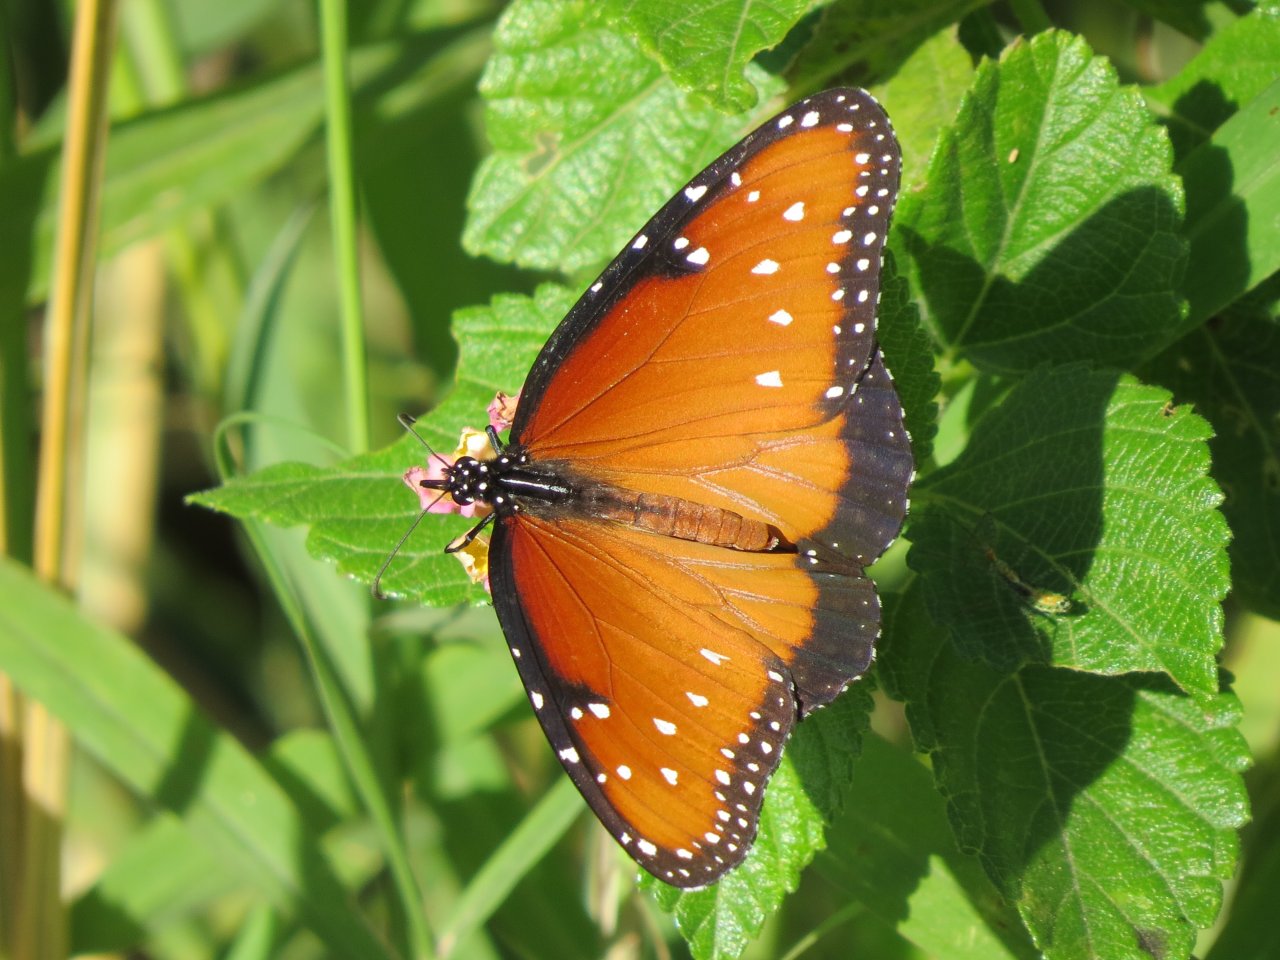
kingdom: Animalia
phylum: Arthropoda
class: Insecta
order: Lepidoptera
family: Nymphalidae
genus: Danaus
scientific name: Danaus gilippus
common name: Queen
